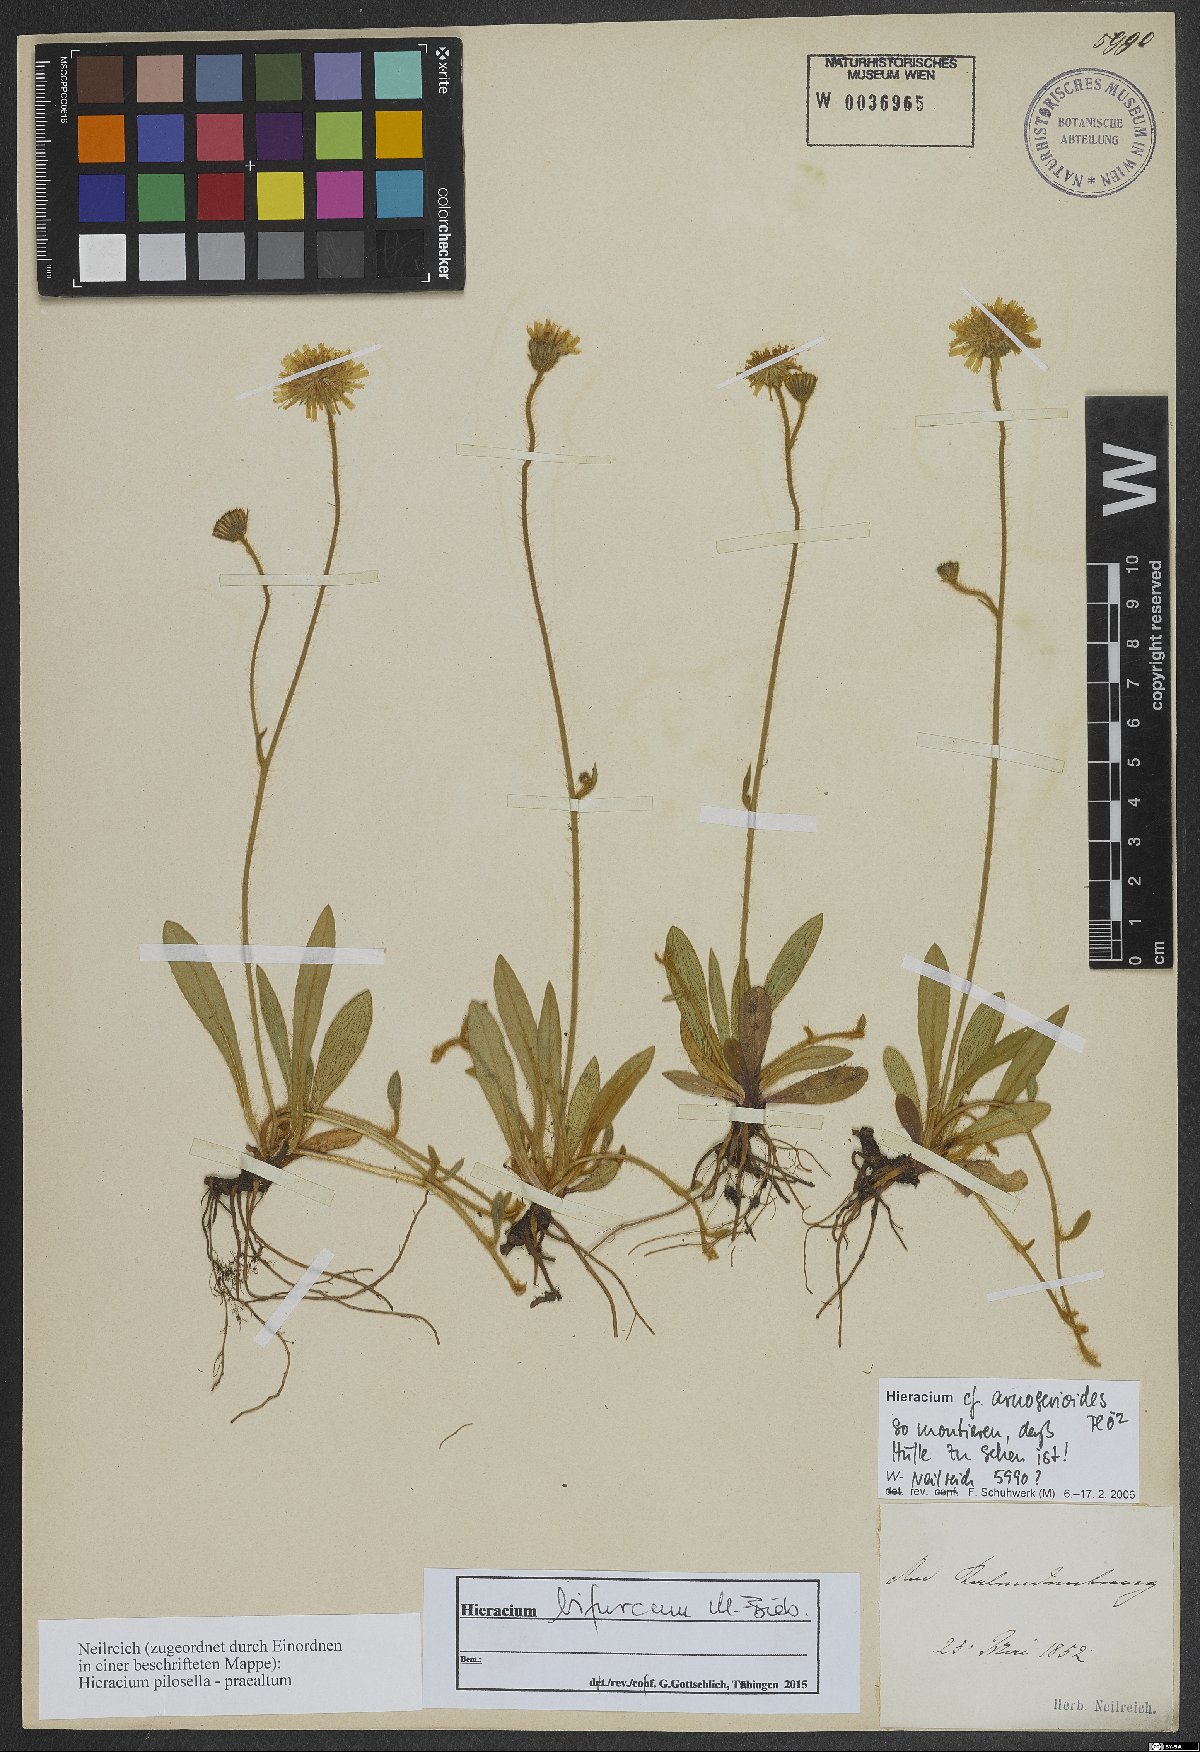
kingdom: Plantae
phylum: Tracheophyta
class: Magnoliopsida
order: Asterales
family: Asteraceae
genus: Pilosella
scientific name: Pilosella bifurca
